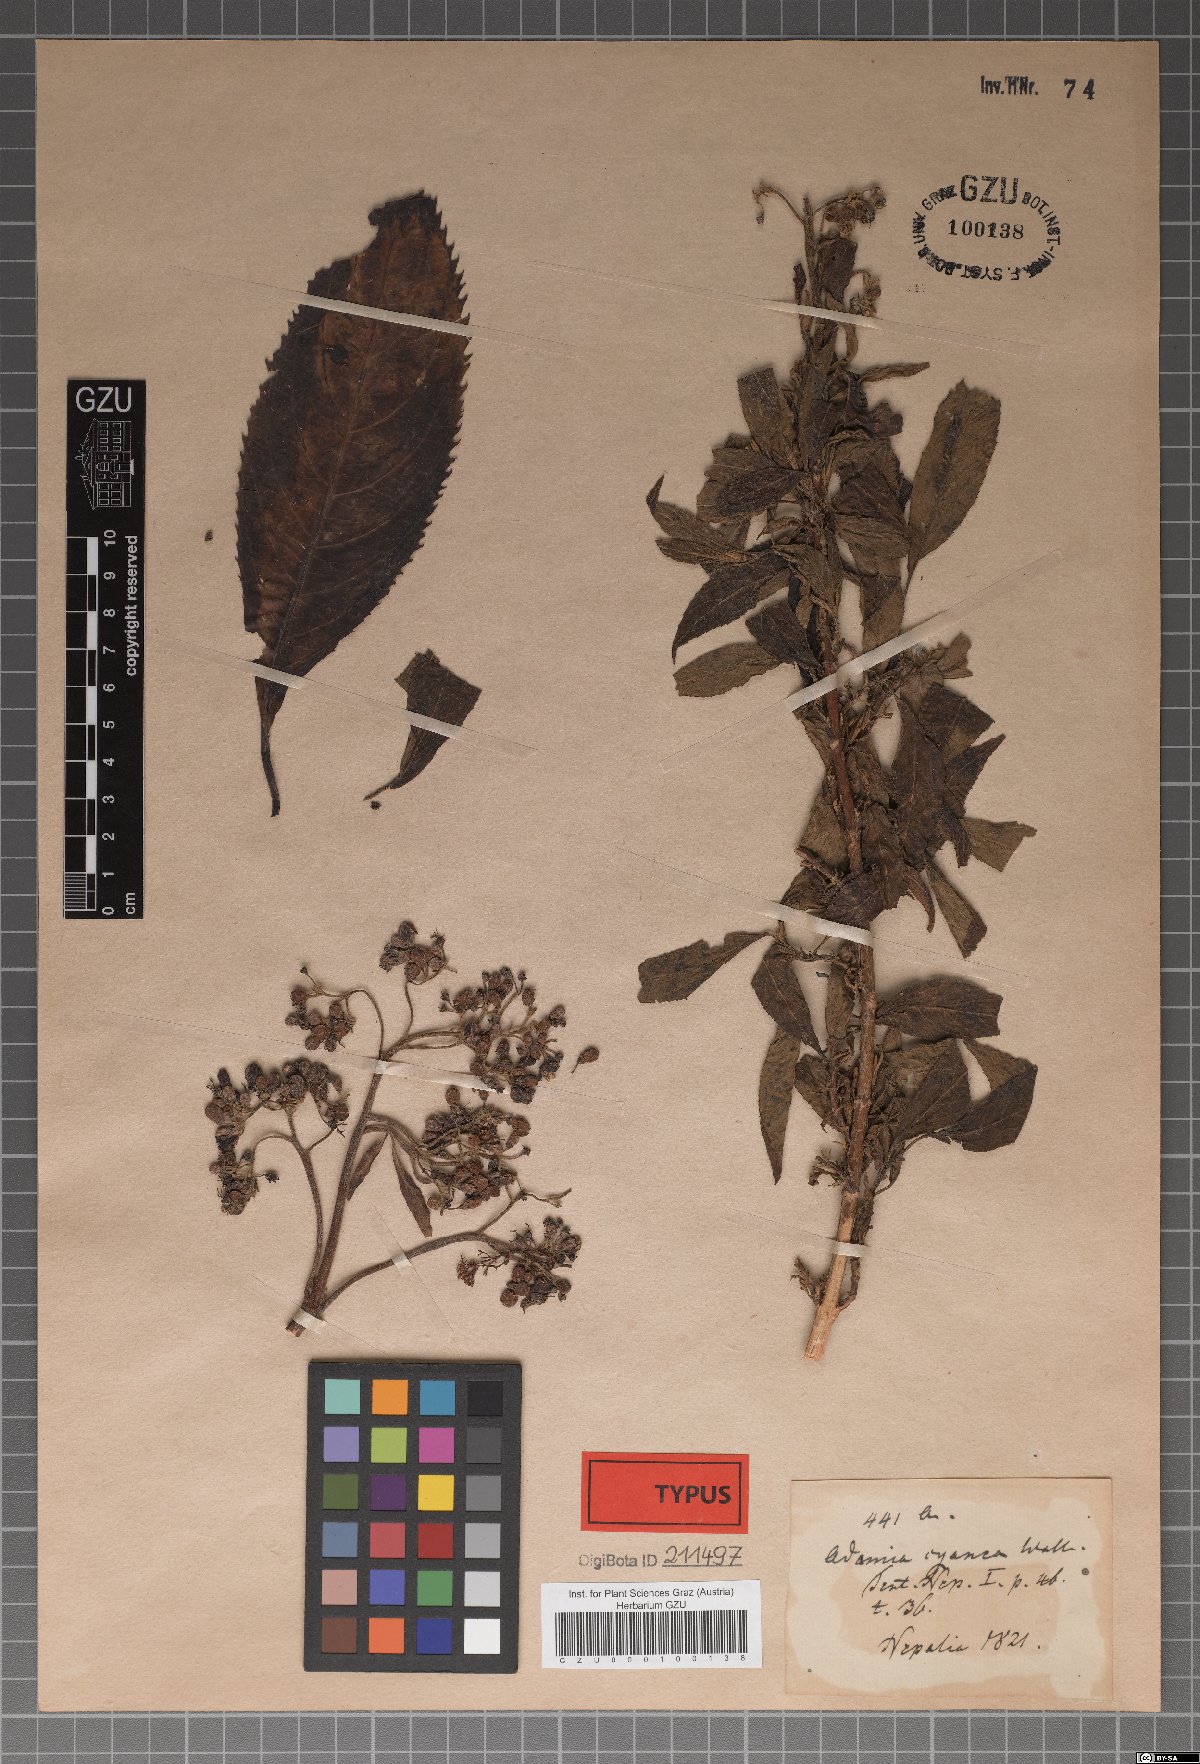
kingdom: Plantae
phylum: Tracheophyta
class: Magnoliopsida
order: Cornales
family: Hydrangeaceae
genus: Hydrangea
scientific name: Hydrangea febrifuga
